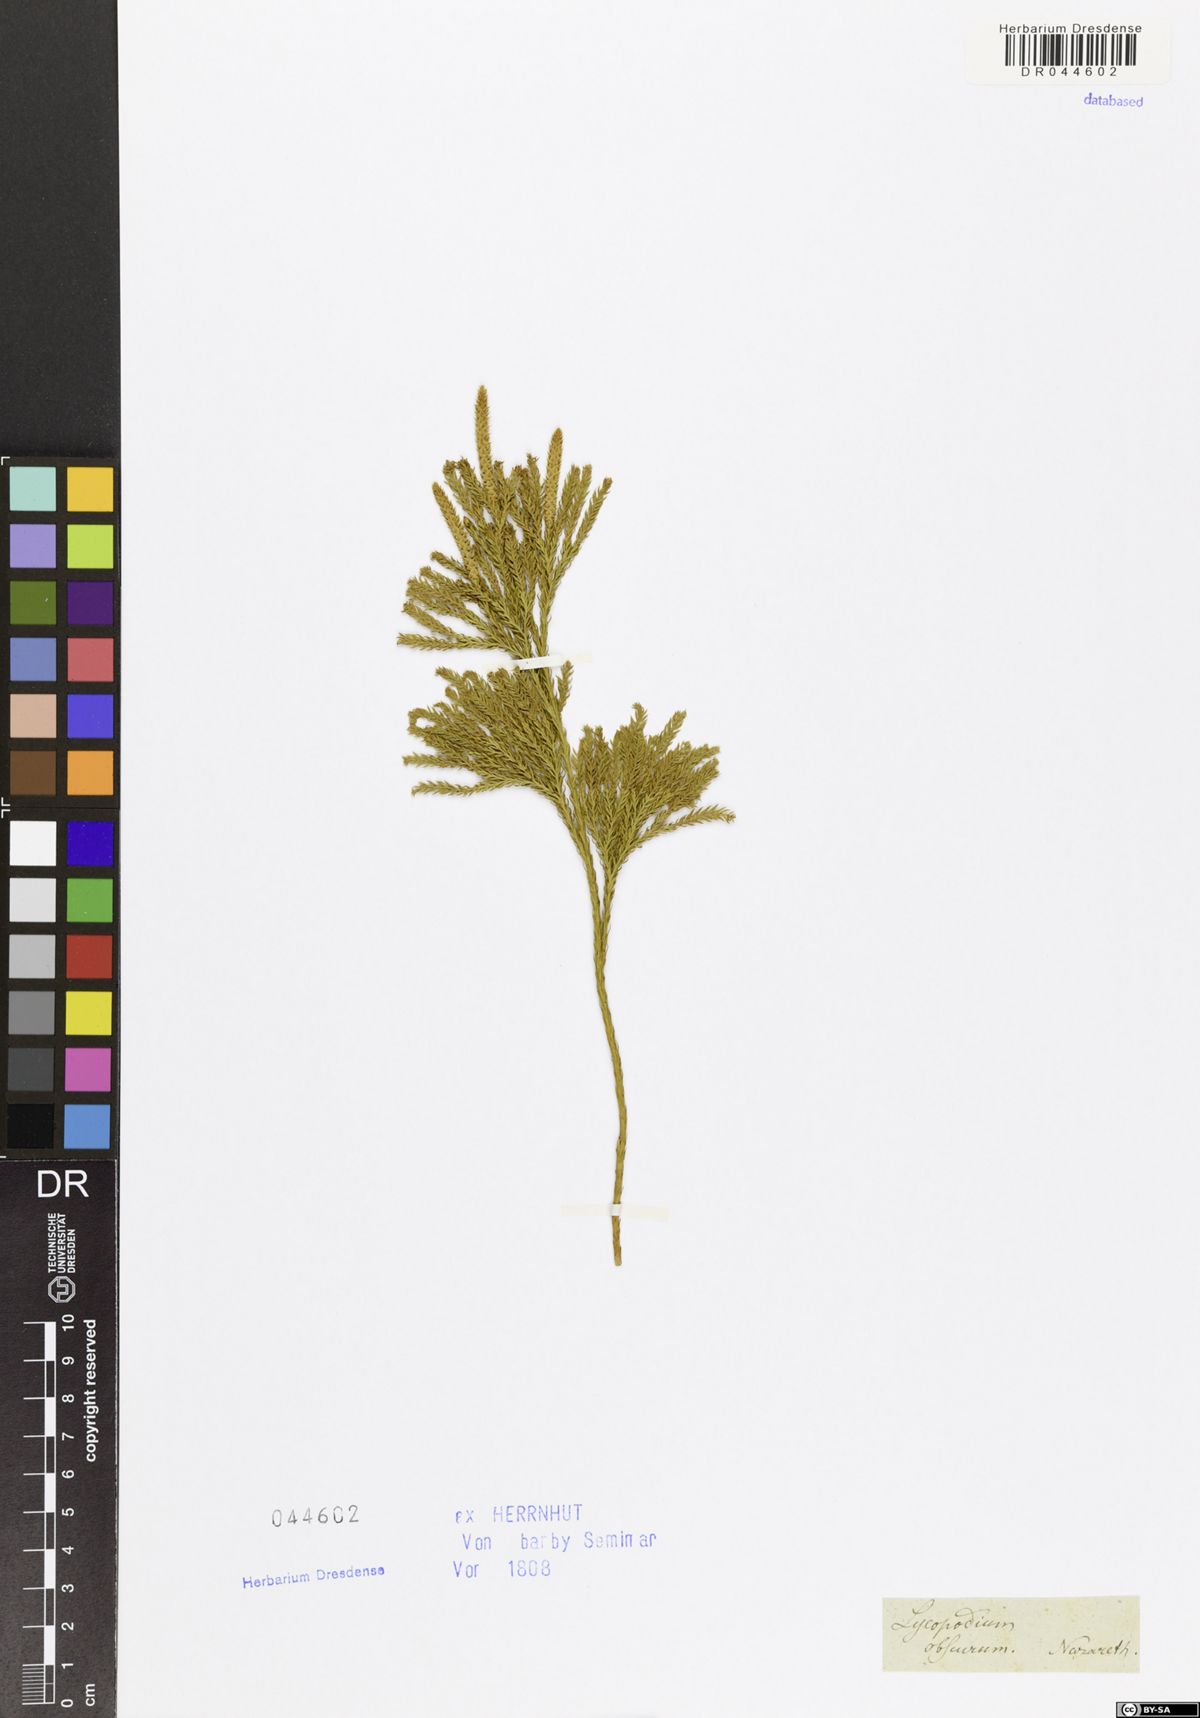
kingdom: Plantae
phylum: Tracheophyta
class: Lycopodiopsida
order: Lycopodiales
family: Lycopodiaceae
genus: Dendrolycopodium
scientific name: Dendrolycopodium obscurum
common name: Common ground-pine
